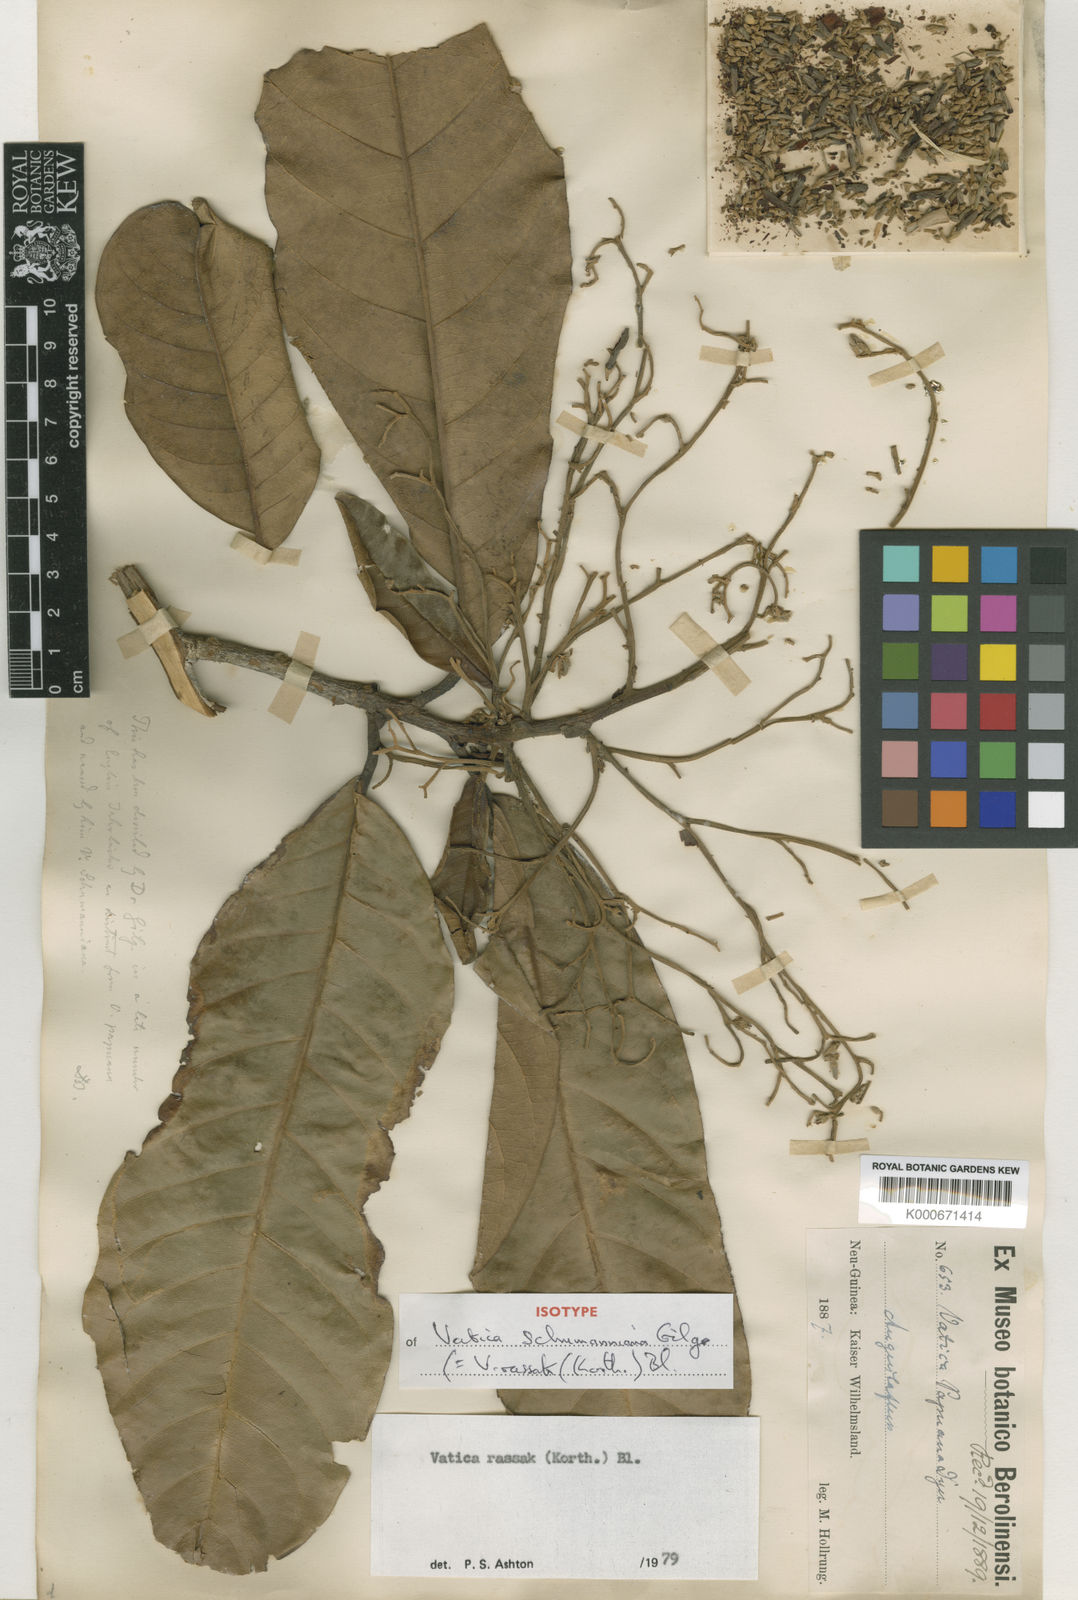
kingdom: Plantae
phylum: Tracheophyta
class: Magnoliopsida
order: Malvales
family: Dipterocarpaceae
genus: Vatica
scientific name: Vatica rassak
